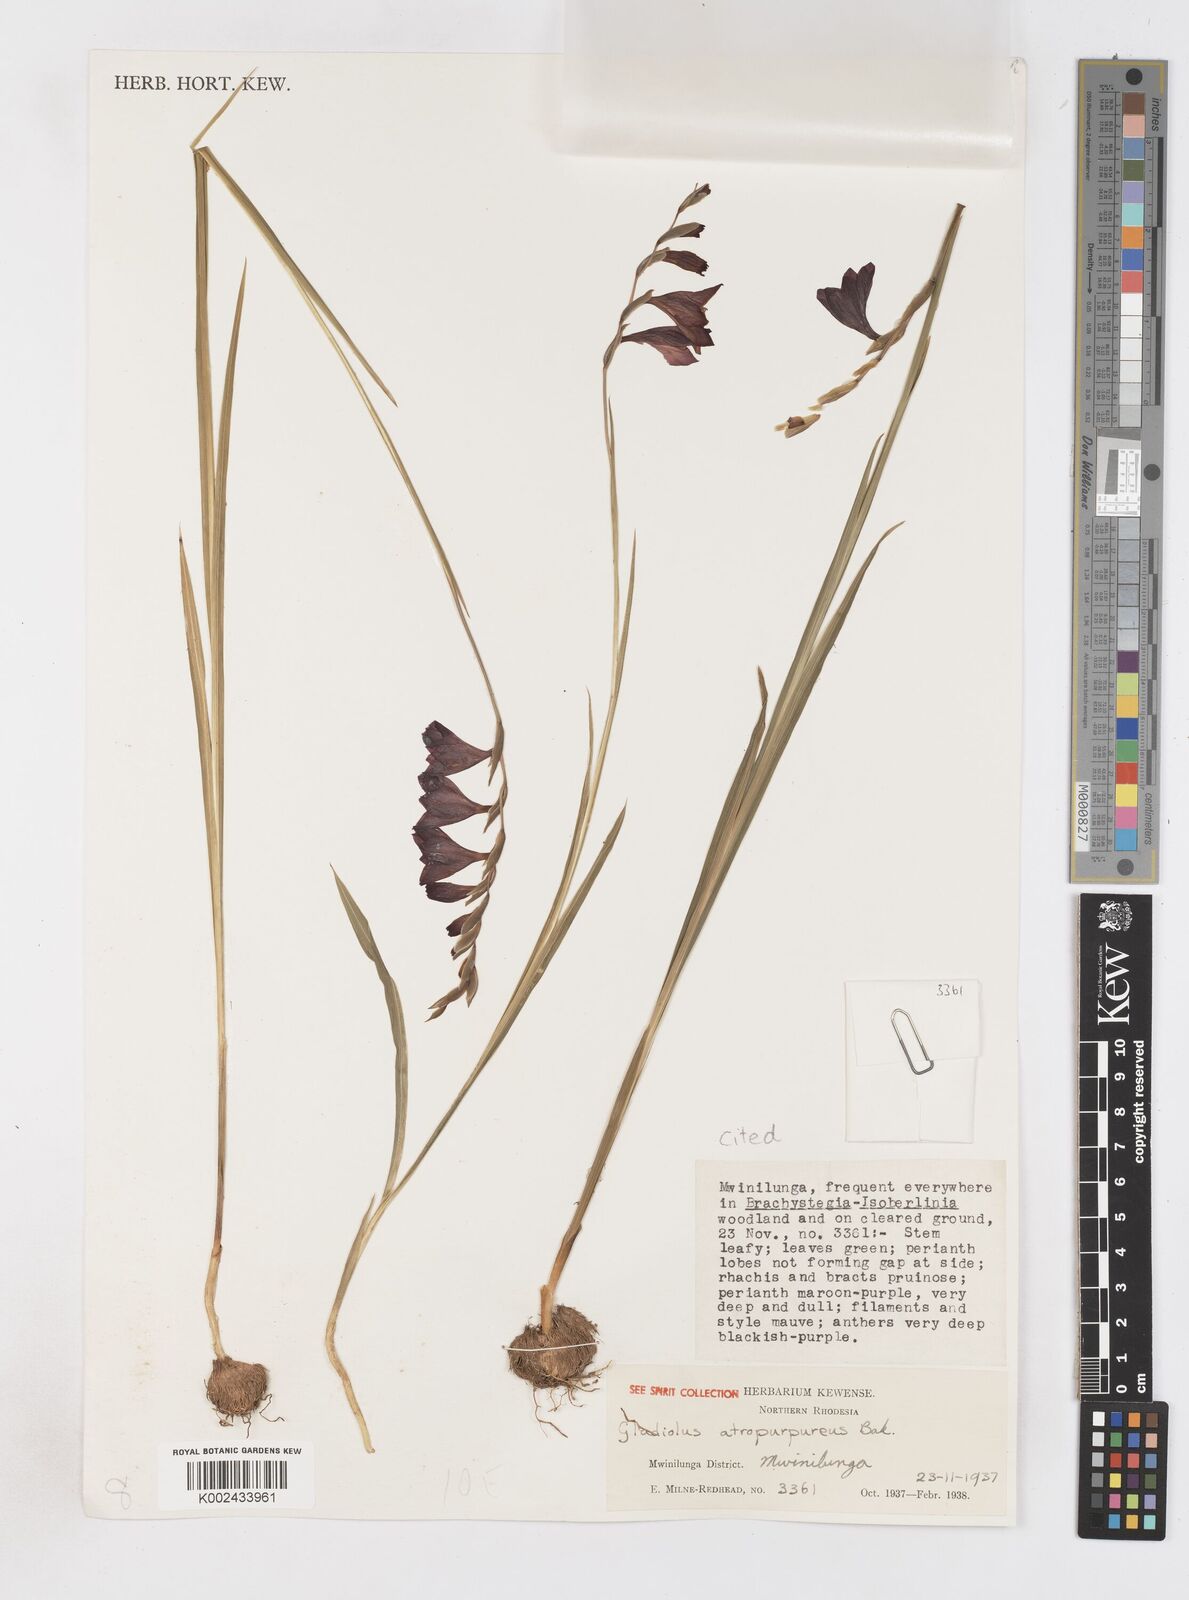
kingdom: Plantae
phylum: Tracheophyta
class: Liliopsida
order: Asparagales
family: Iridaceae
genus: Gladiolus
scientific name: Gladiolus atropurpureus
